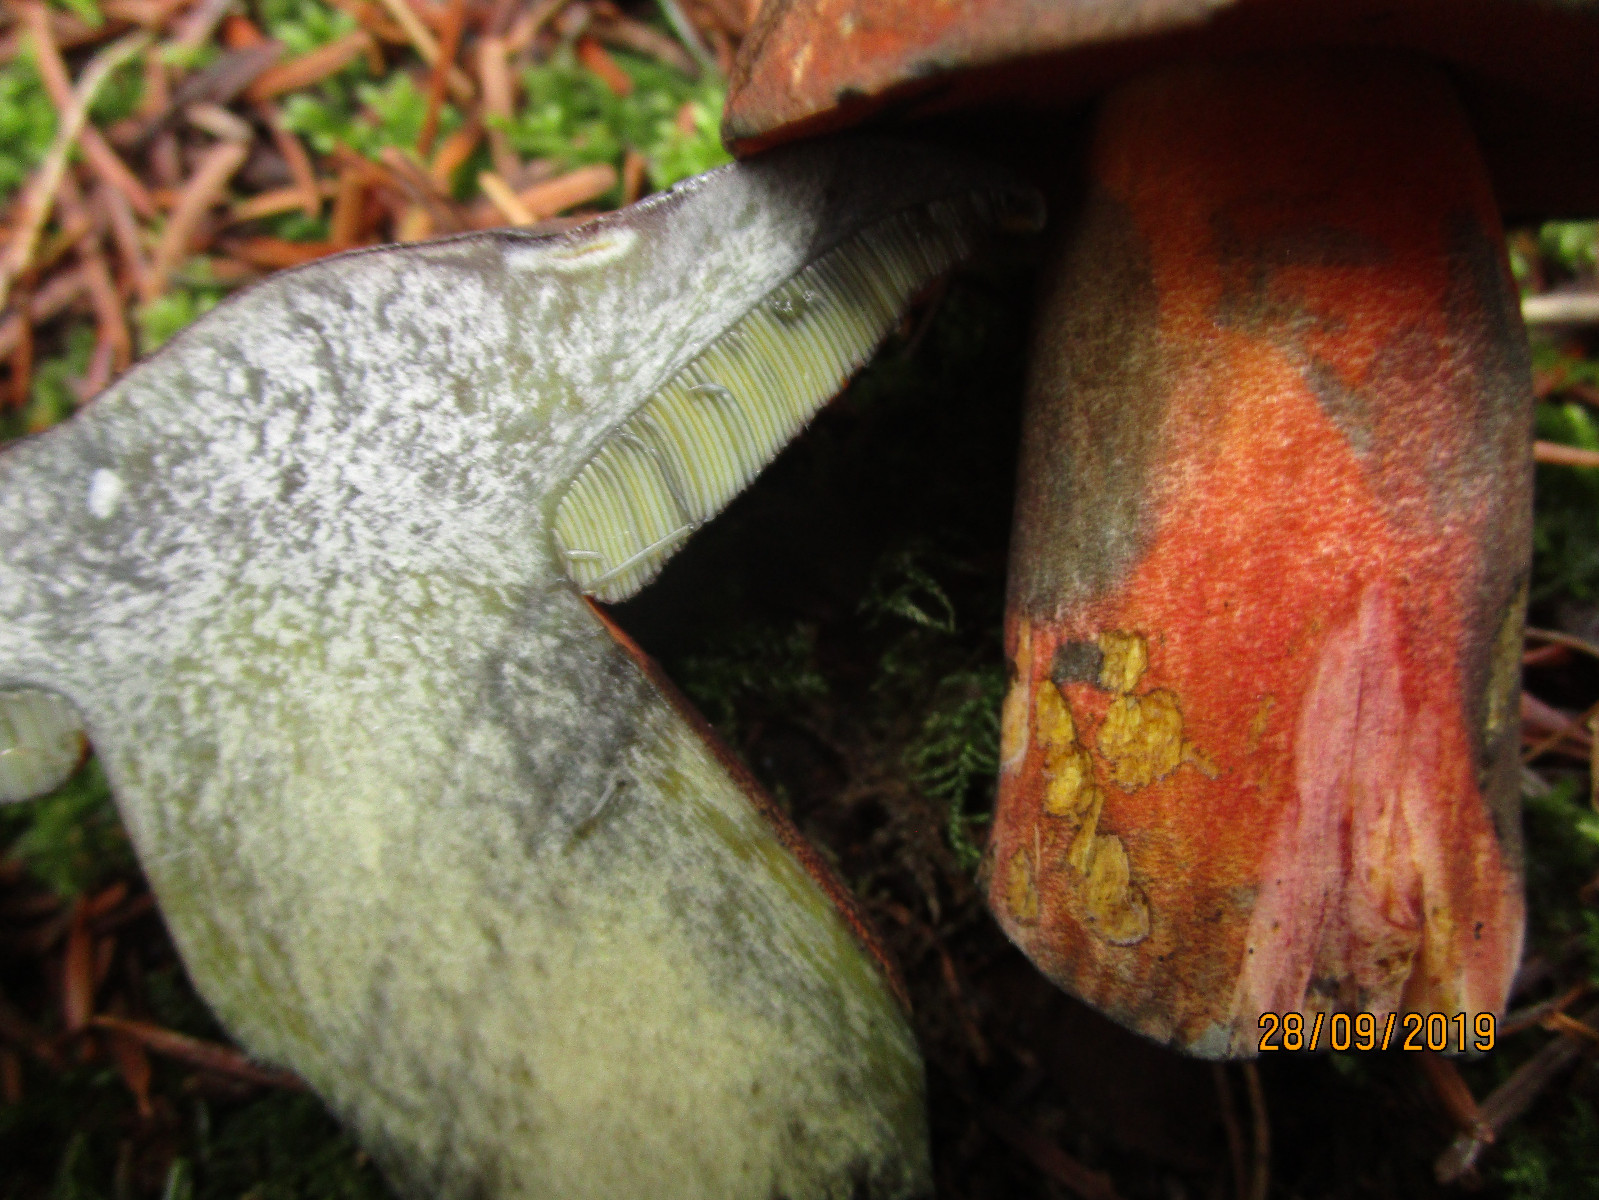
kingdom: Fungi
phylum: Basidiomycota
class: Agaricomycetes
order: Boletales
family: Boletaceae
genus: Neoboletus
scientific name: Neoboletus erythropus
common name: punktstokket indigorørhat
